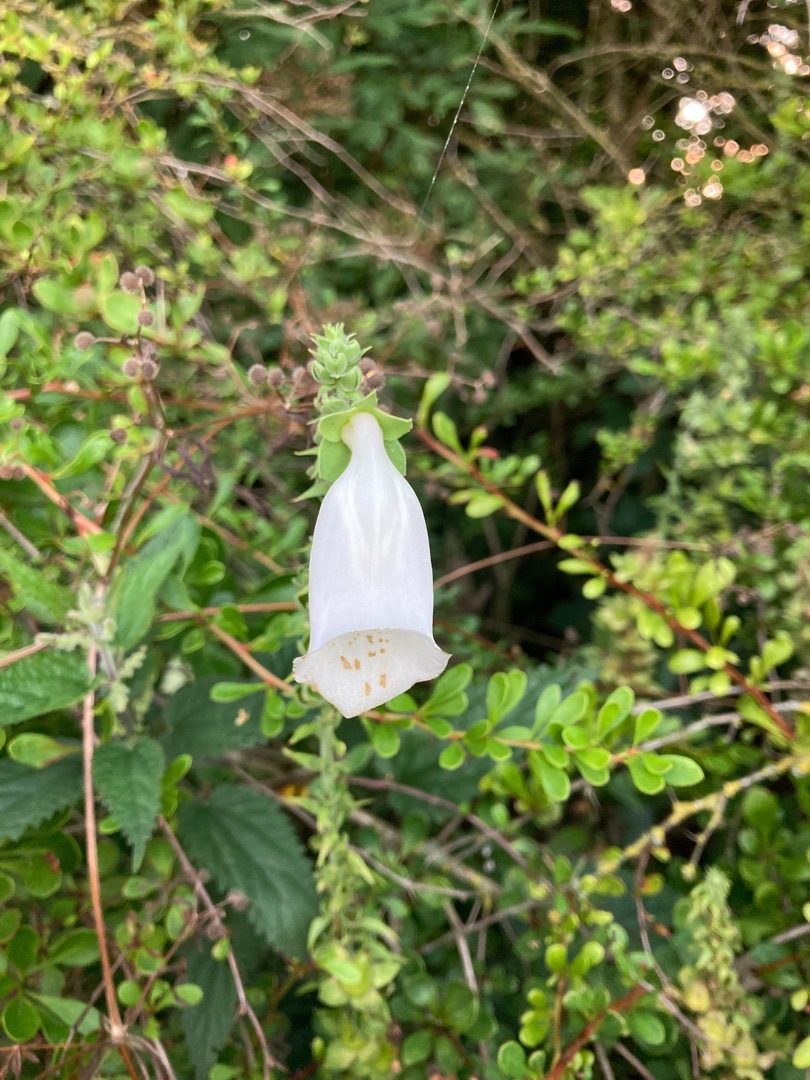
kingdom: Plantae
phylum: Tracheophyta
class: Magnoliopsida
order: Lamiales
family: Plantaginaceae
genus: Digitalis
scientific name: Digitalis purpurea
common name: Almindelig fingerbøl
